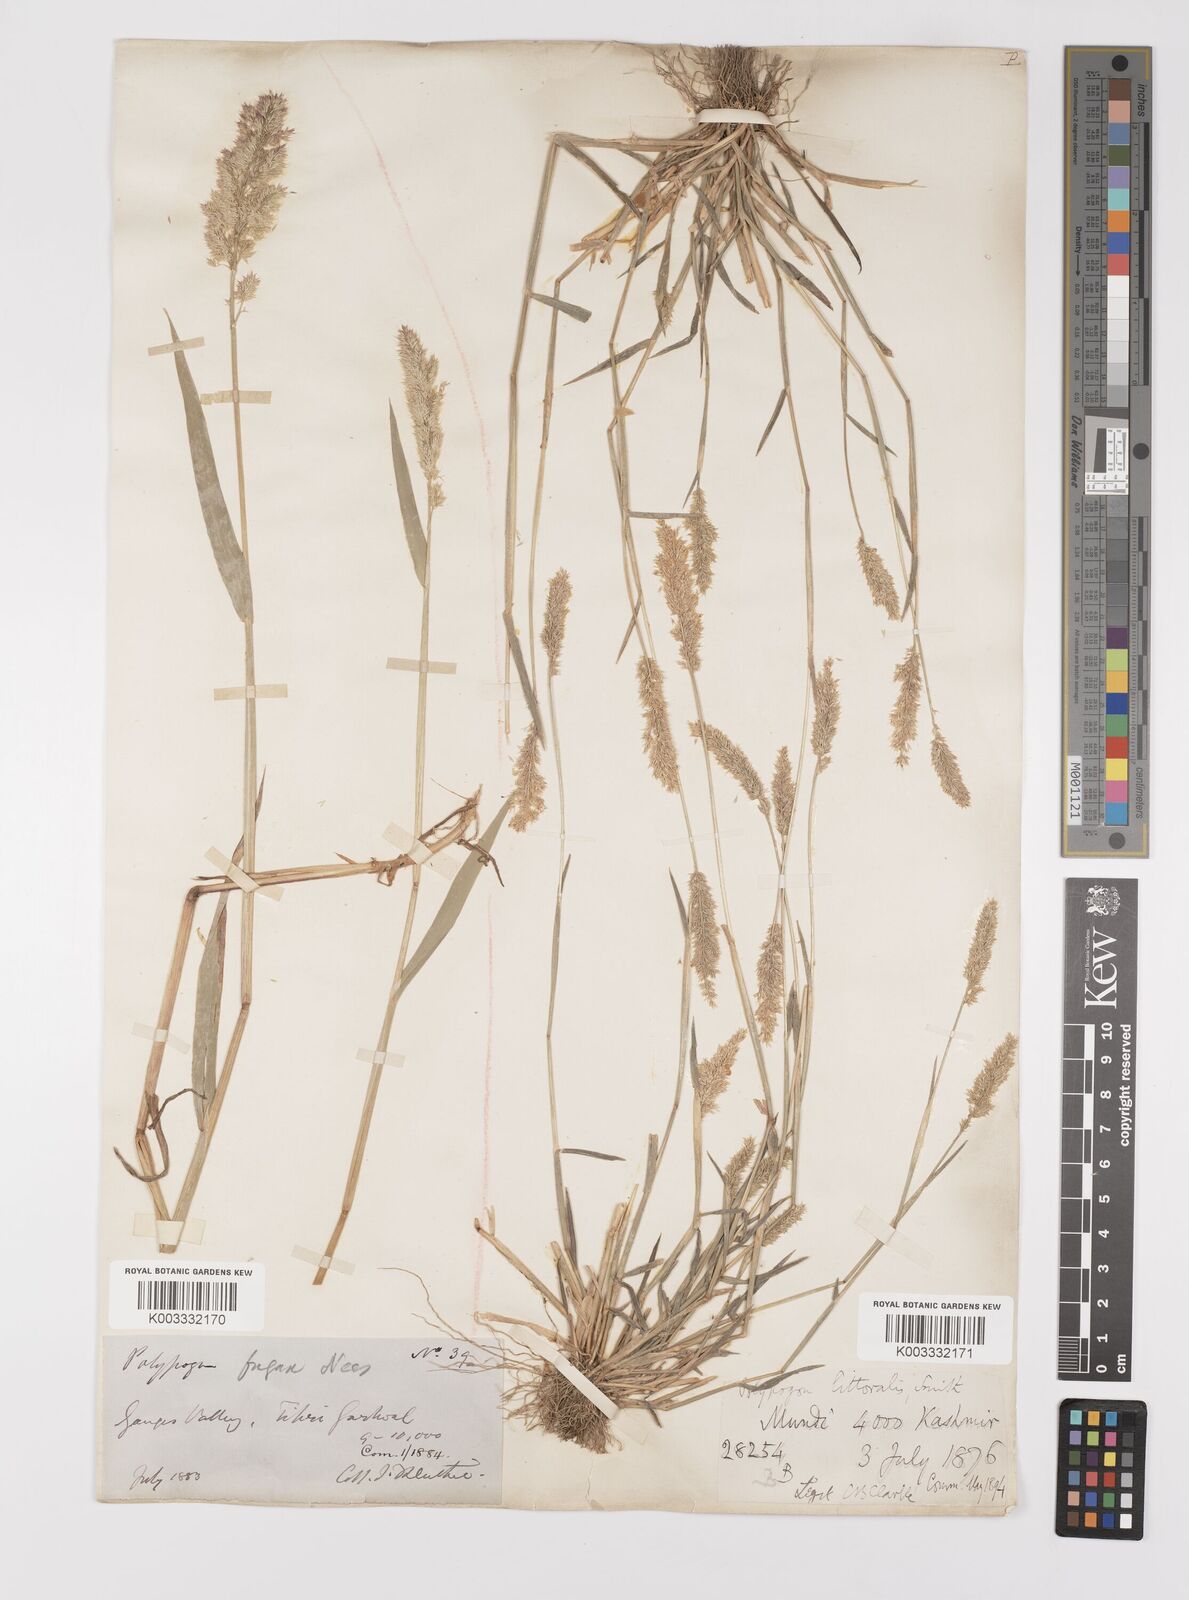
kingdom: Plantae
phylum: Tracheophyta
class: Liliopsida
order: Poales
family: Poaceae
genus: Polypogon
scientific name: Polypogon fugax
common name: Asia minor bluegrass
